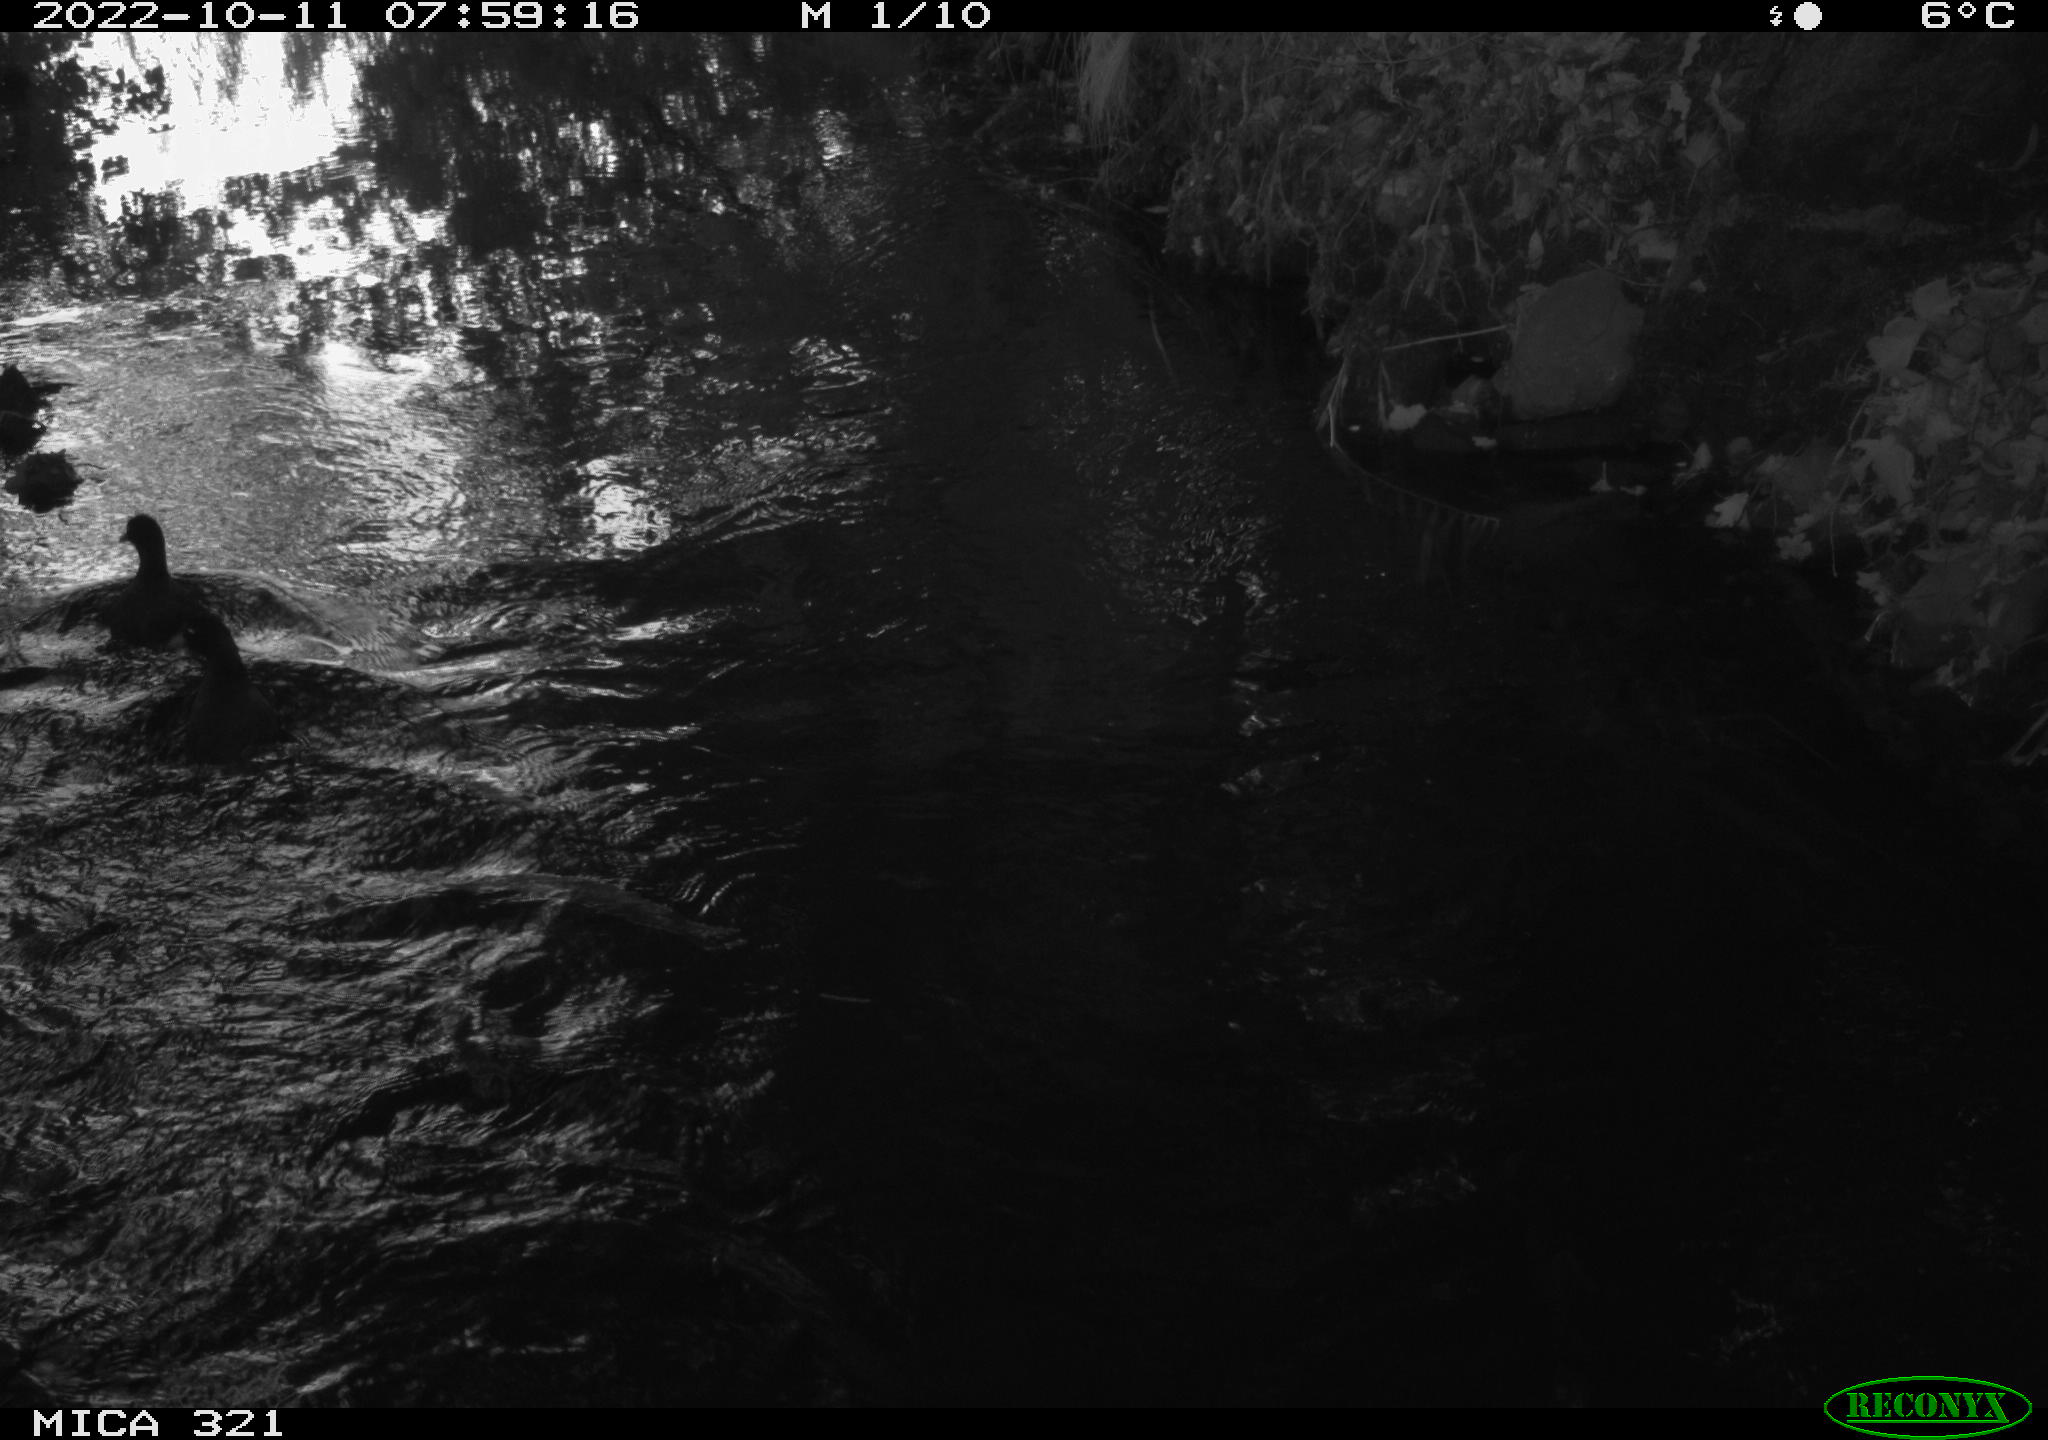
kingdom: Animalia
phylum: Chordata
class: Aves
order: Anseriformes
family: Anatidae
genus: Anas
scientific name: Anas
